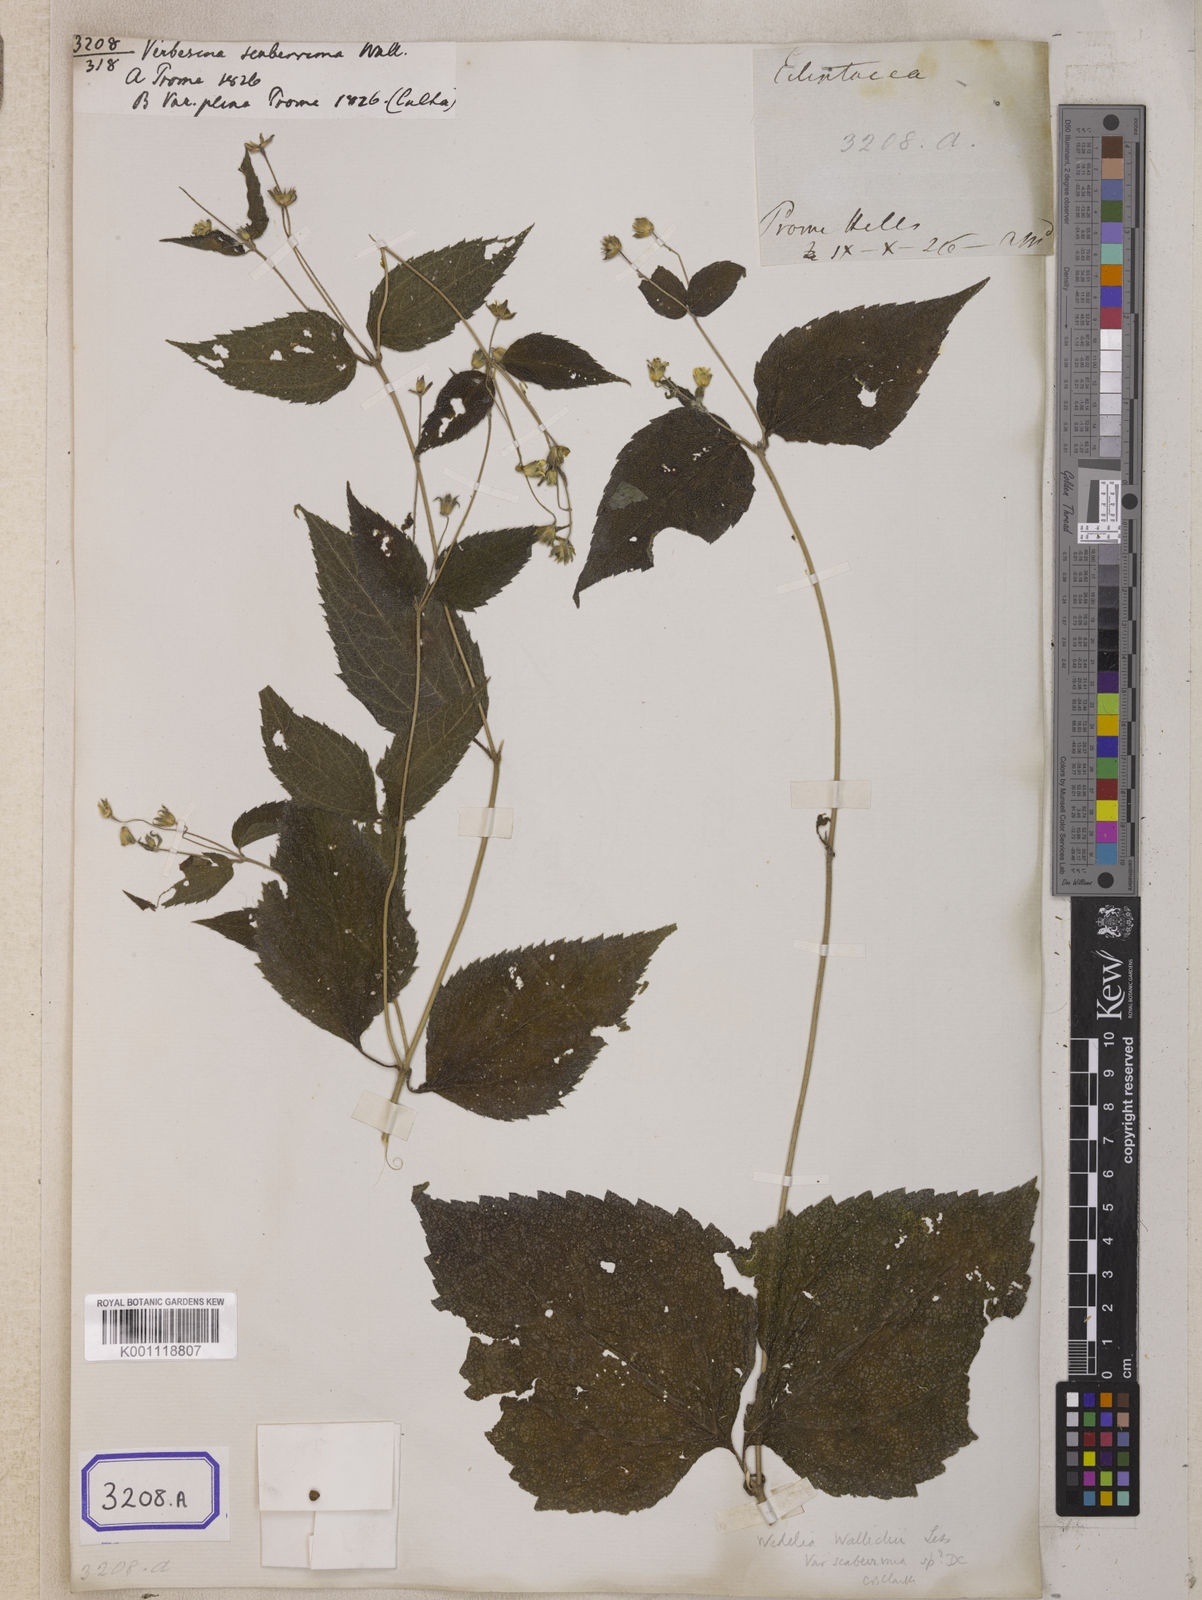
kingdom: Plantae
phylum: Tracheophyta
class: Magnoliopsida
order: Asterales
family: Asteraceae
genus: Indocypraea
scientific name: Indocypraea montana
